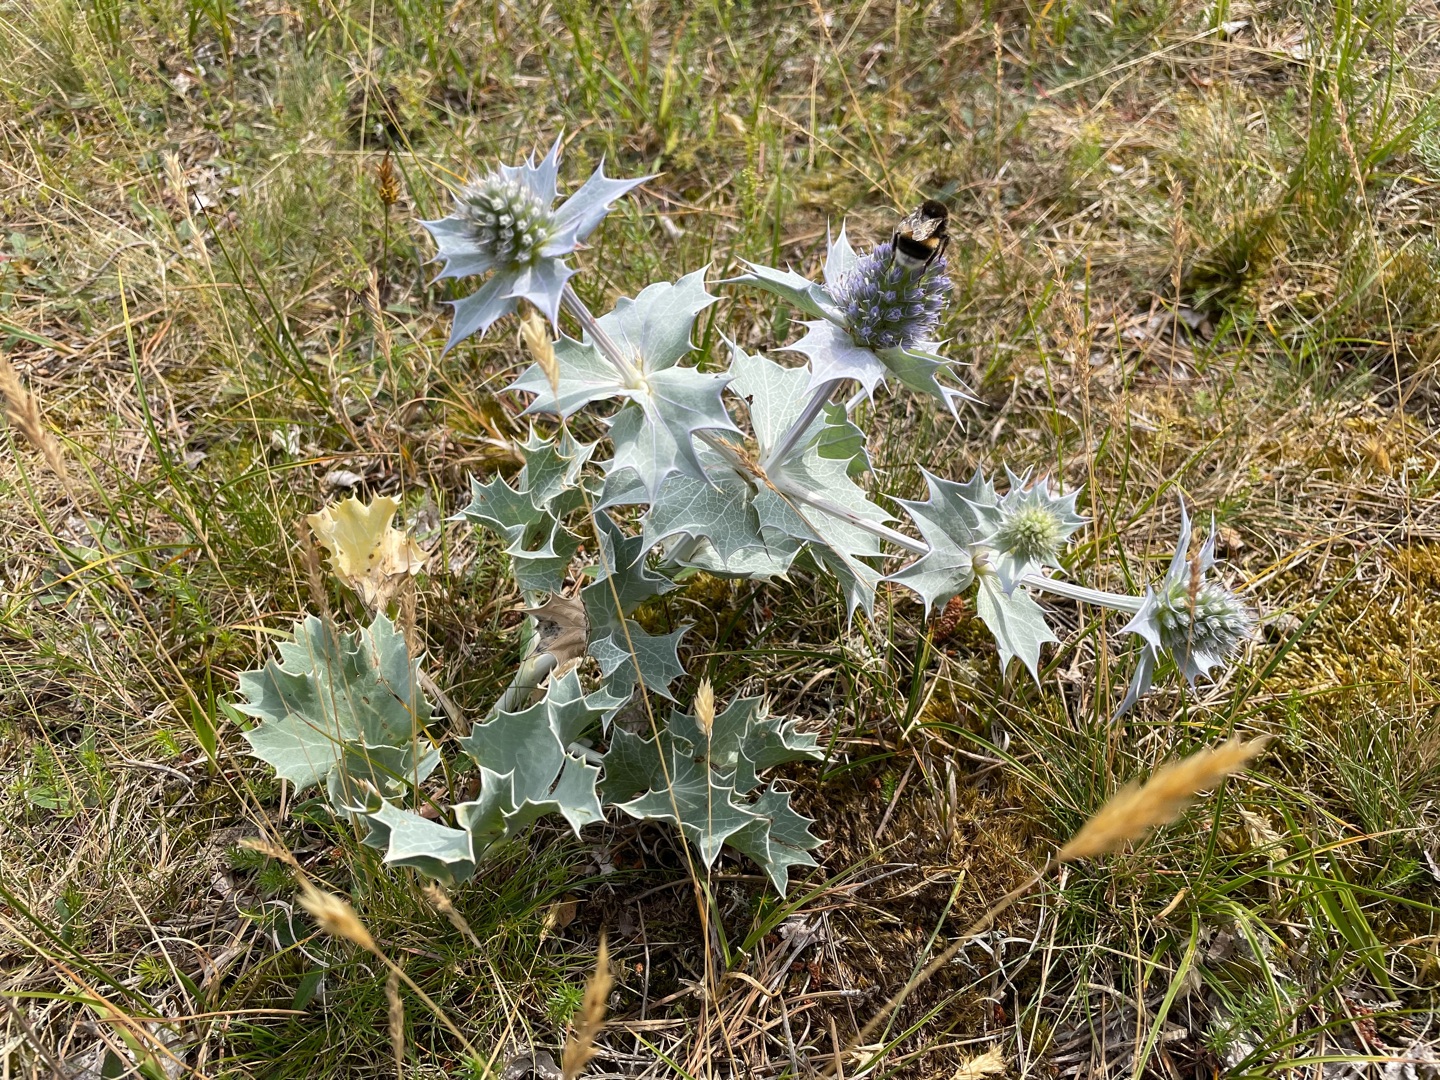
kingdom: Plantae
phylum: Tracheophyta
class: Magnoliopsida
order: Apiales
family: Apiaceae
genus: Eryngium
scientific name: Eryngium maritimum
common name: Strand-mandstro
